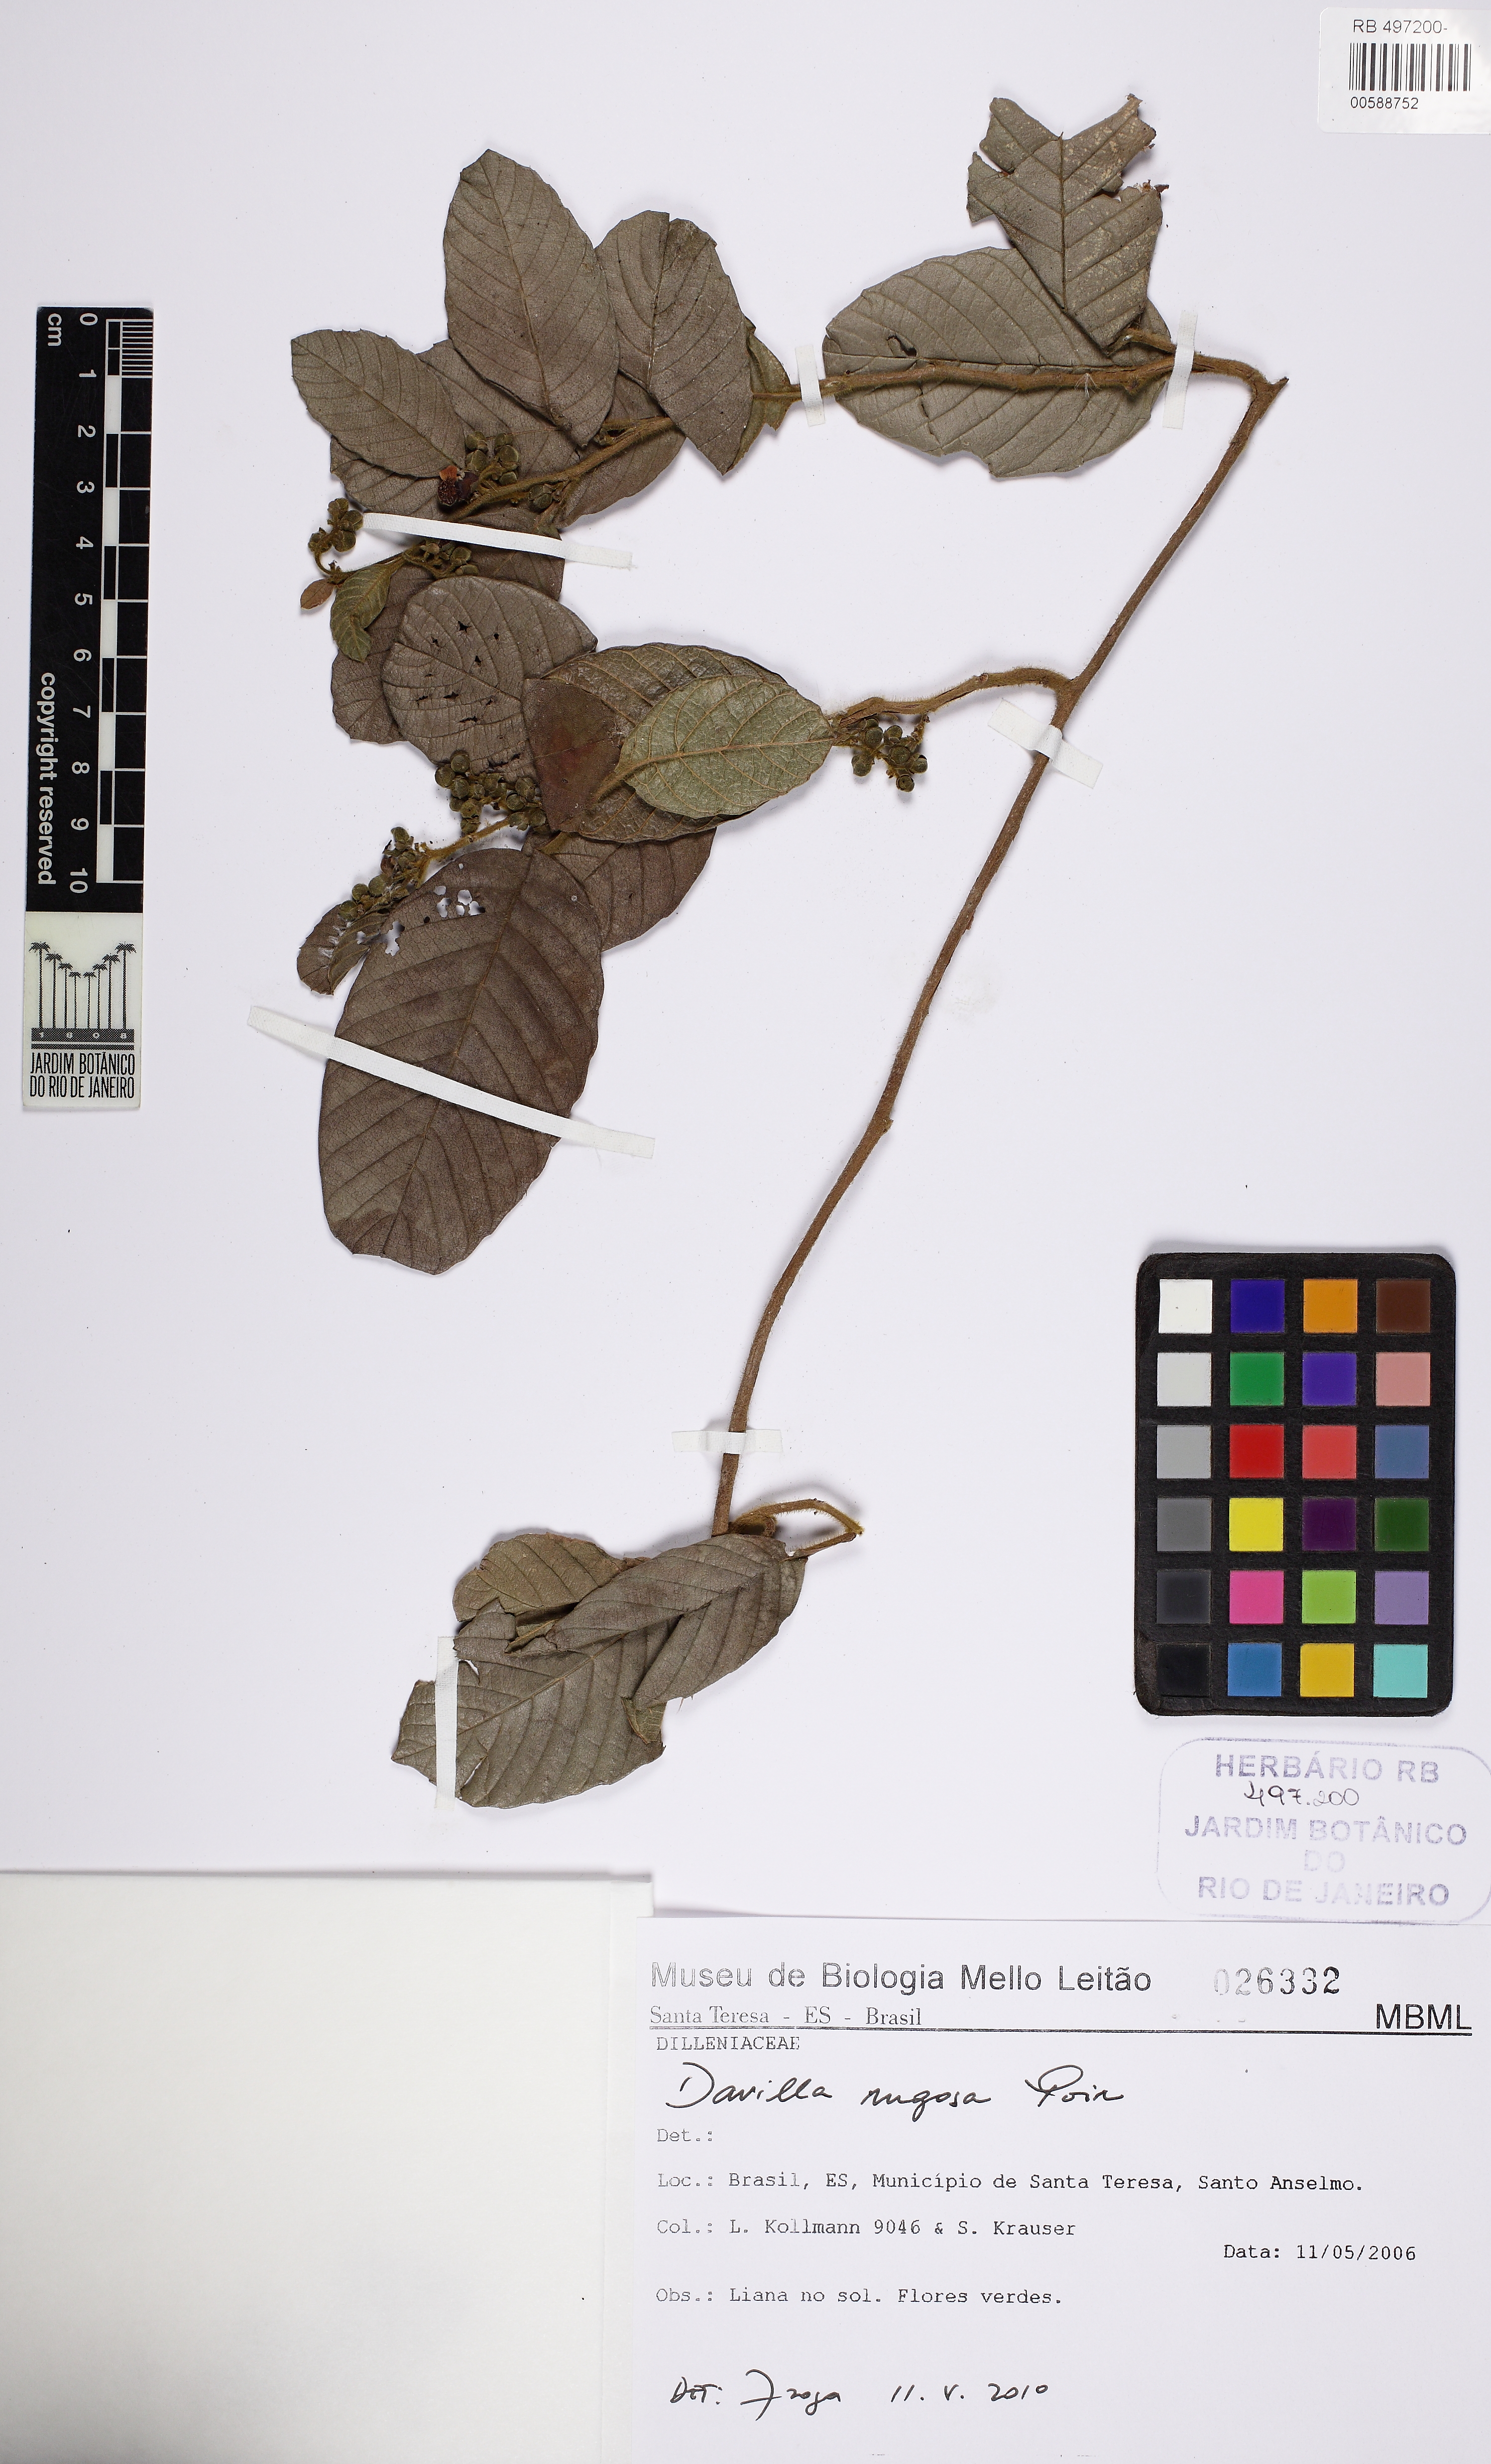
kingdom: Plantae
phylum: Tracheophyta
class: Magnoliopsida
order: Dilleniales
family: Dilleniaceae
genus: Davilla
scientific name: Davilla rugosa
